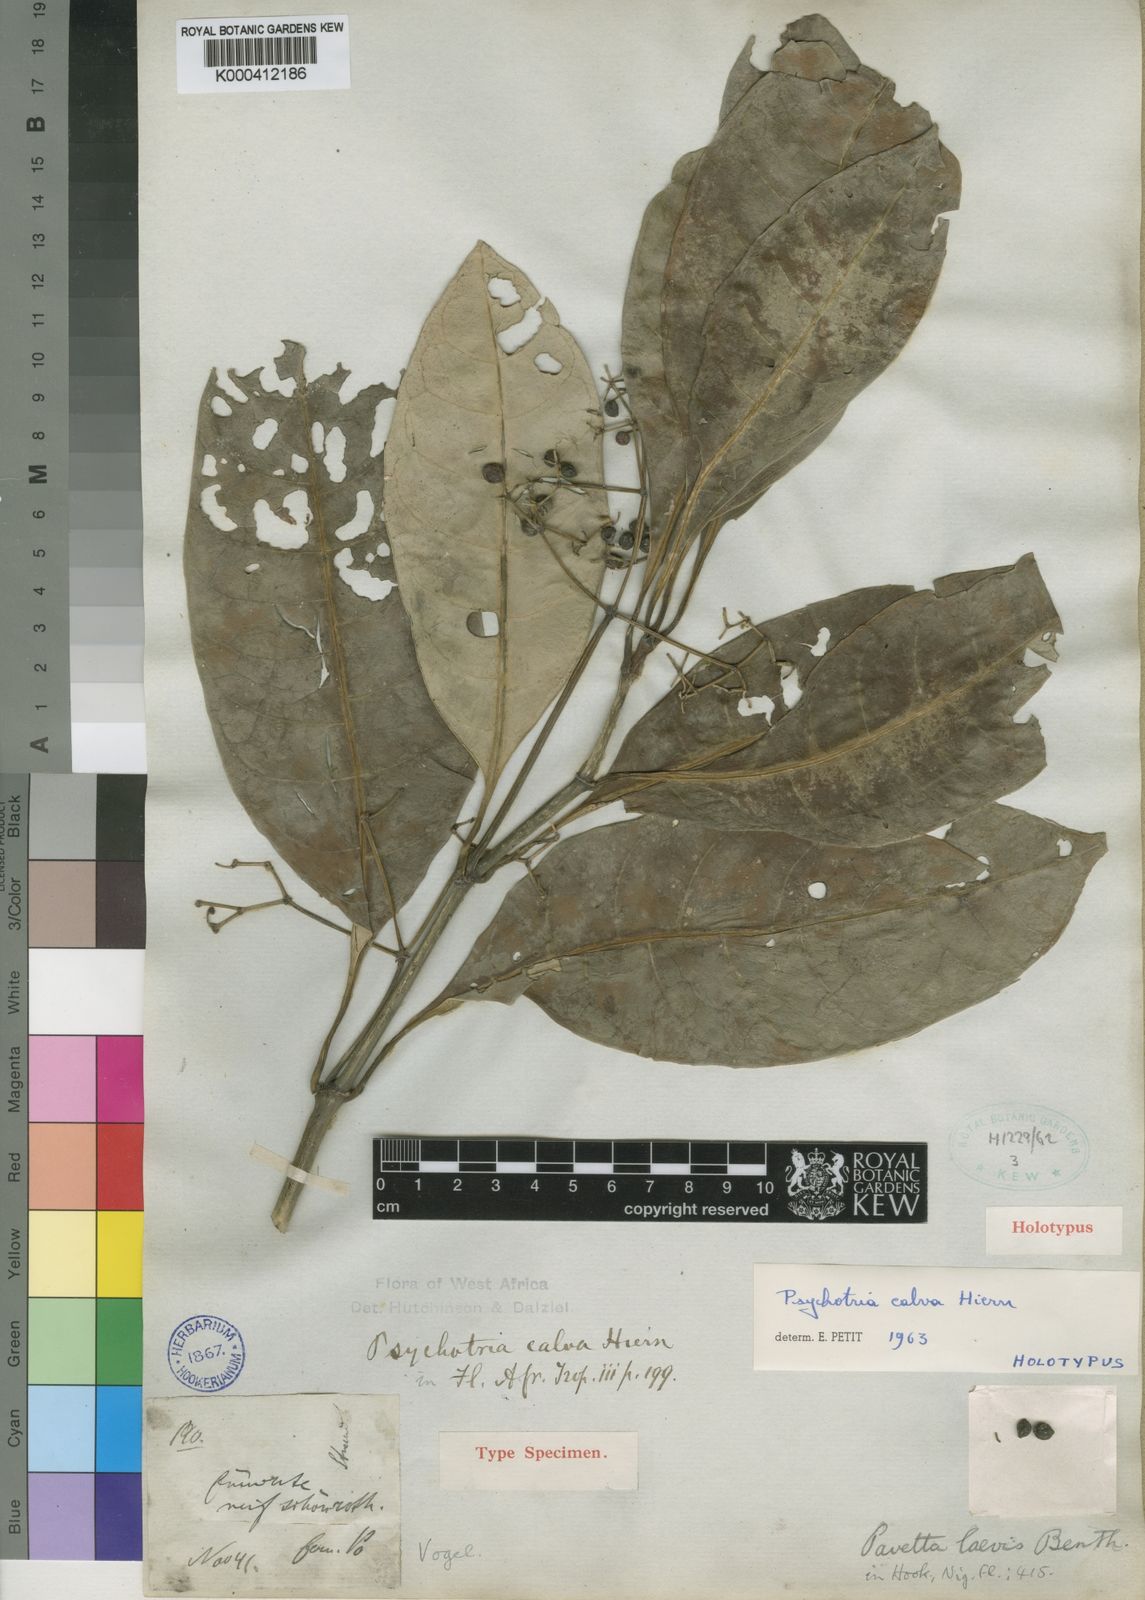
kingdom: Plantae
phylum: Tracheophyta
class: Magnoliopsida
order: Gentianales
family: Rubiaceae
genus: Psychotria
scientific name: Psychotria calva
